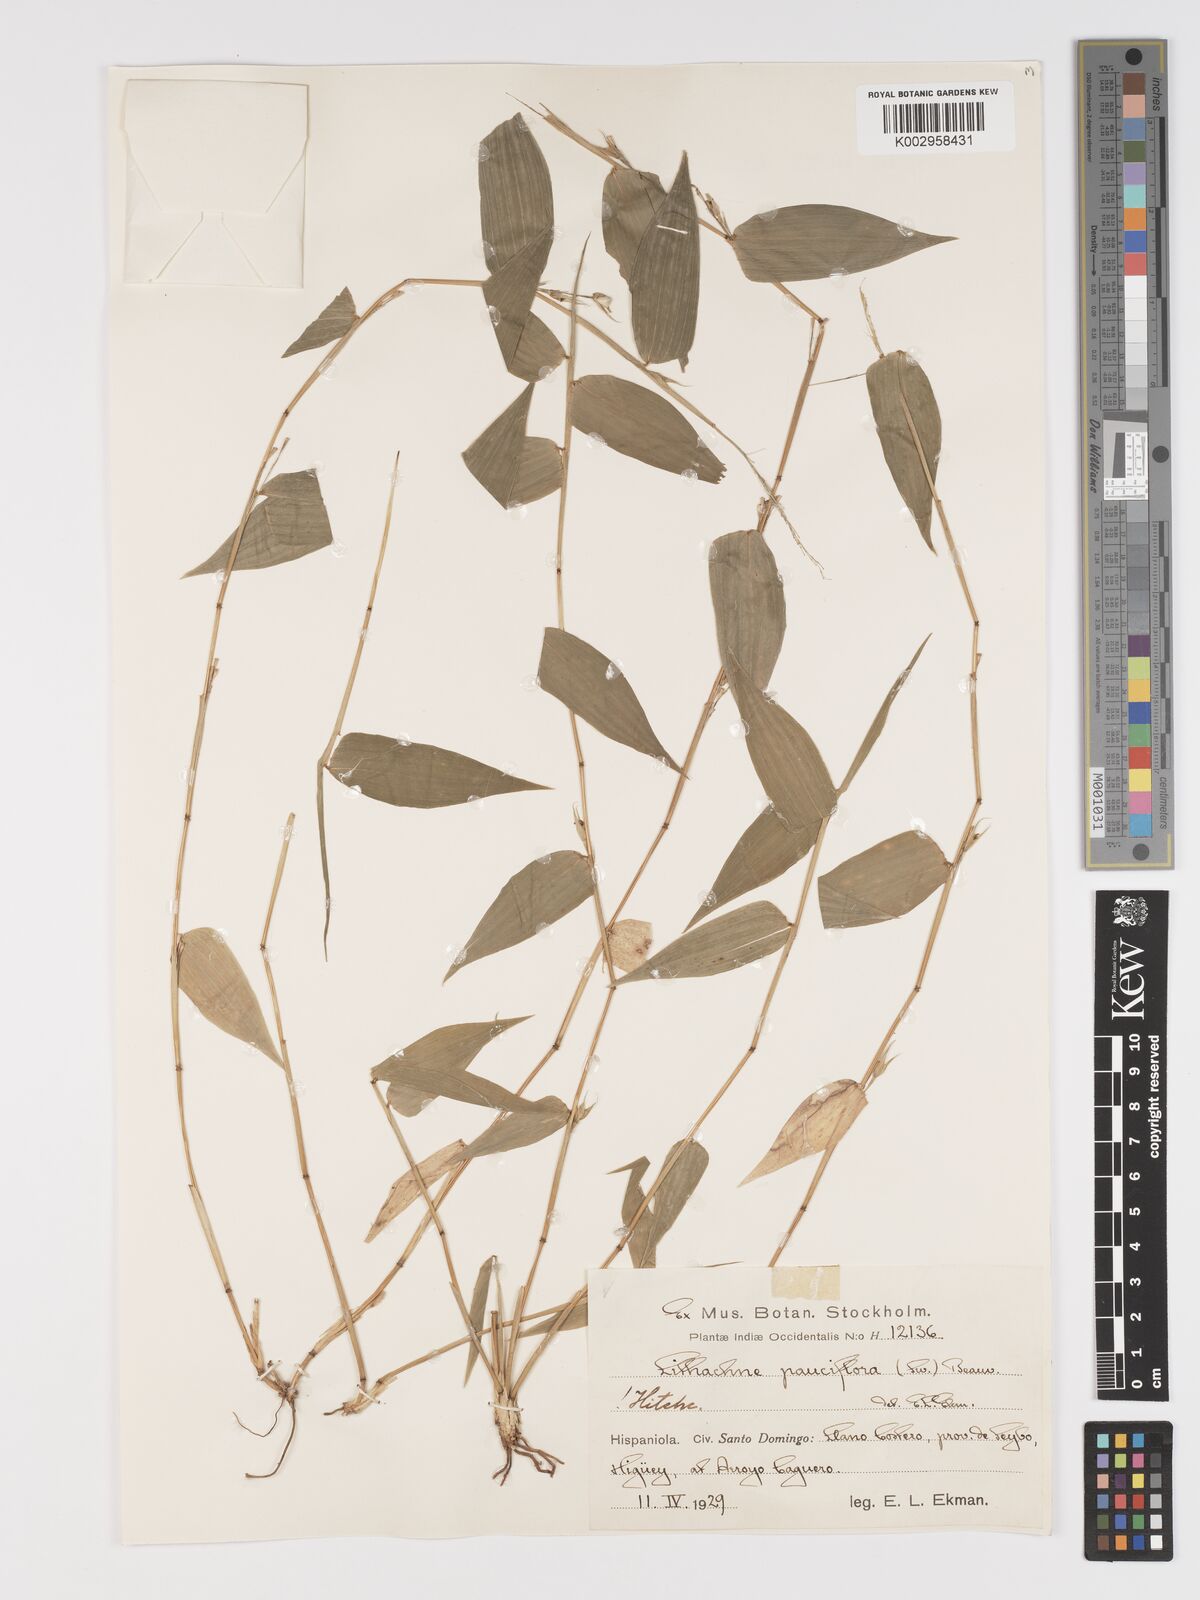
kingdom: Plantae
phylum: Tracheophyta
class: Liliopsida
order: Poales
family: Poaceae
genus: Lithachne
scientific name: Lithachne pauciflora
